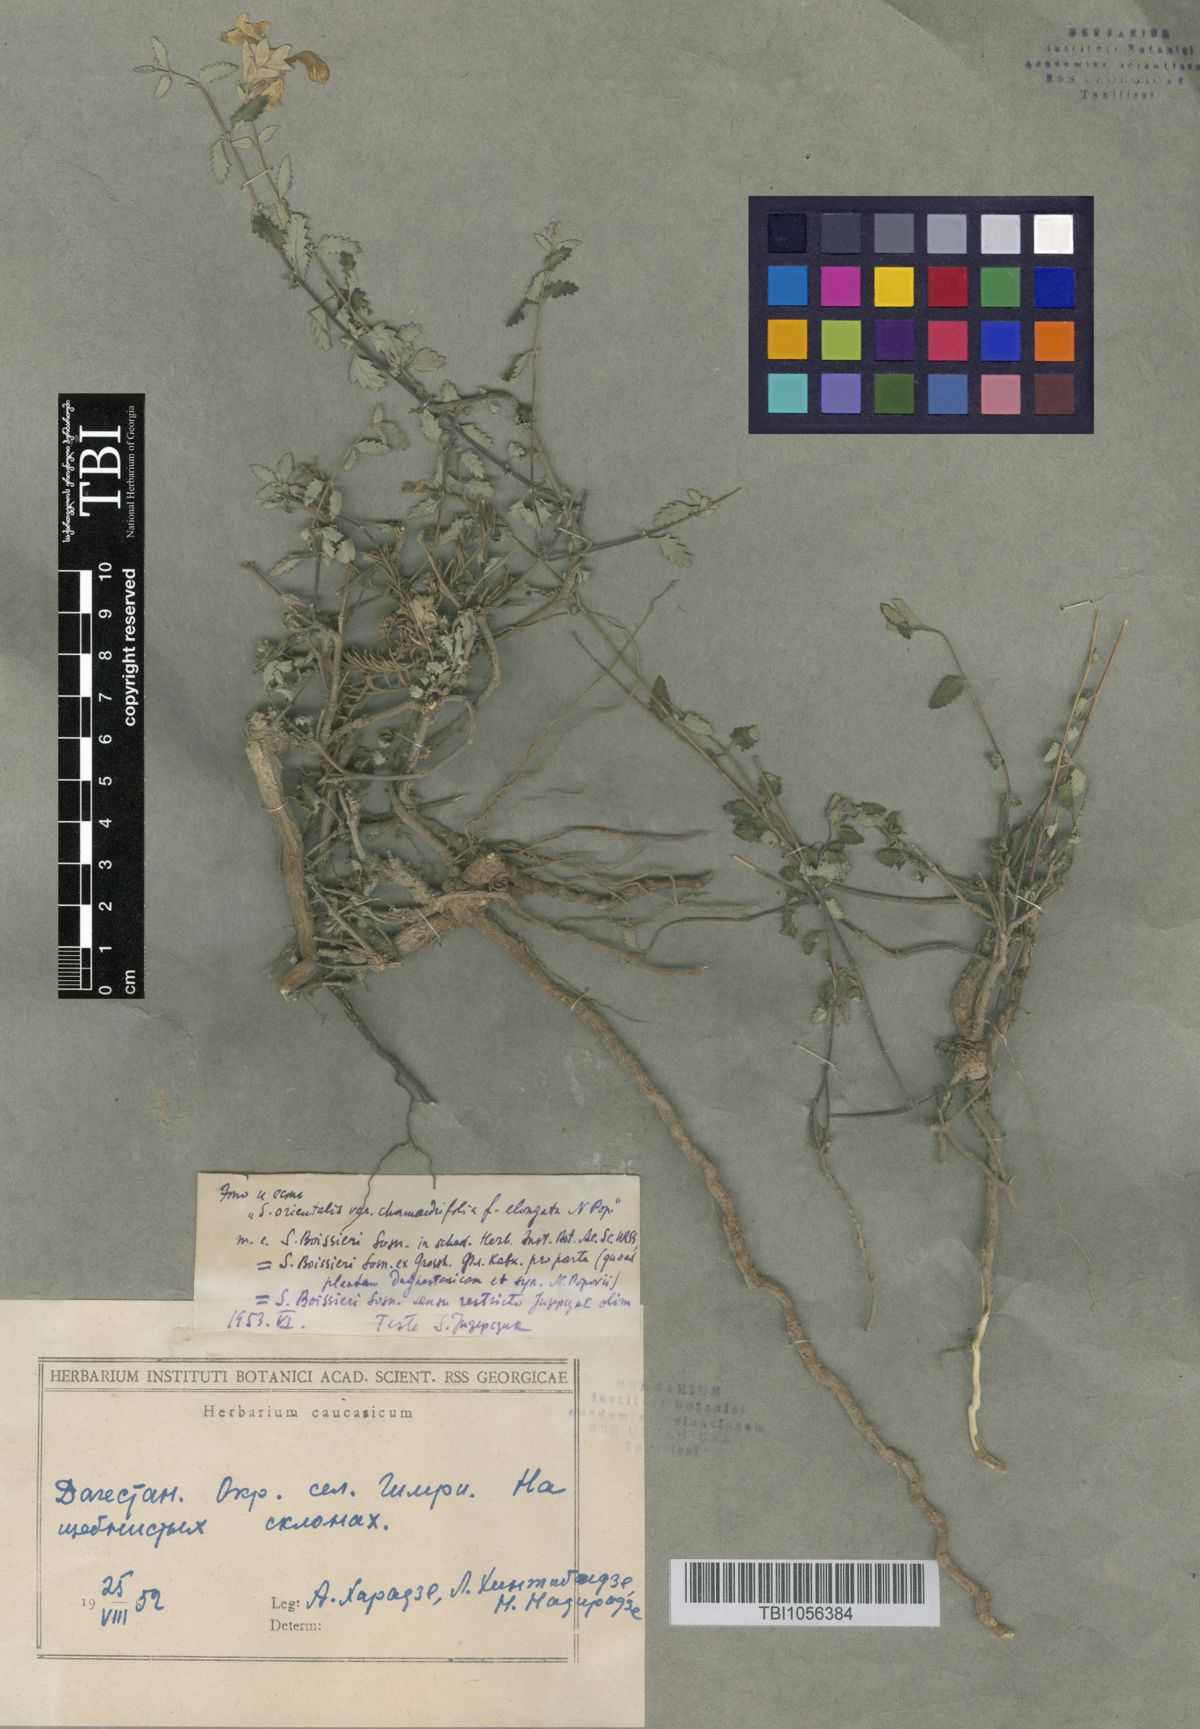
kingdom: Plantae
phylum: Tracheophyta
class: Magnoliopsida
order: Lamiales
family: Lamiaceae
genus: Scutellaria
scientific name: Scutellaria granulosa
